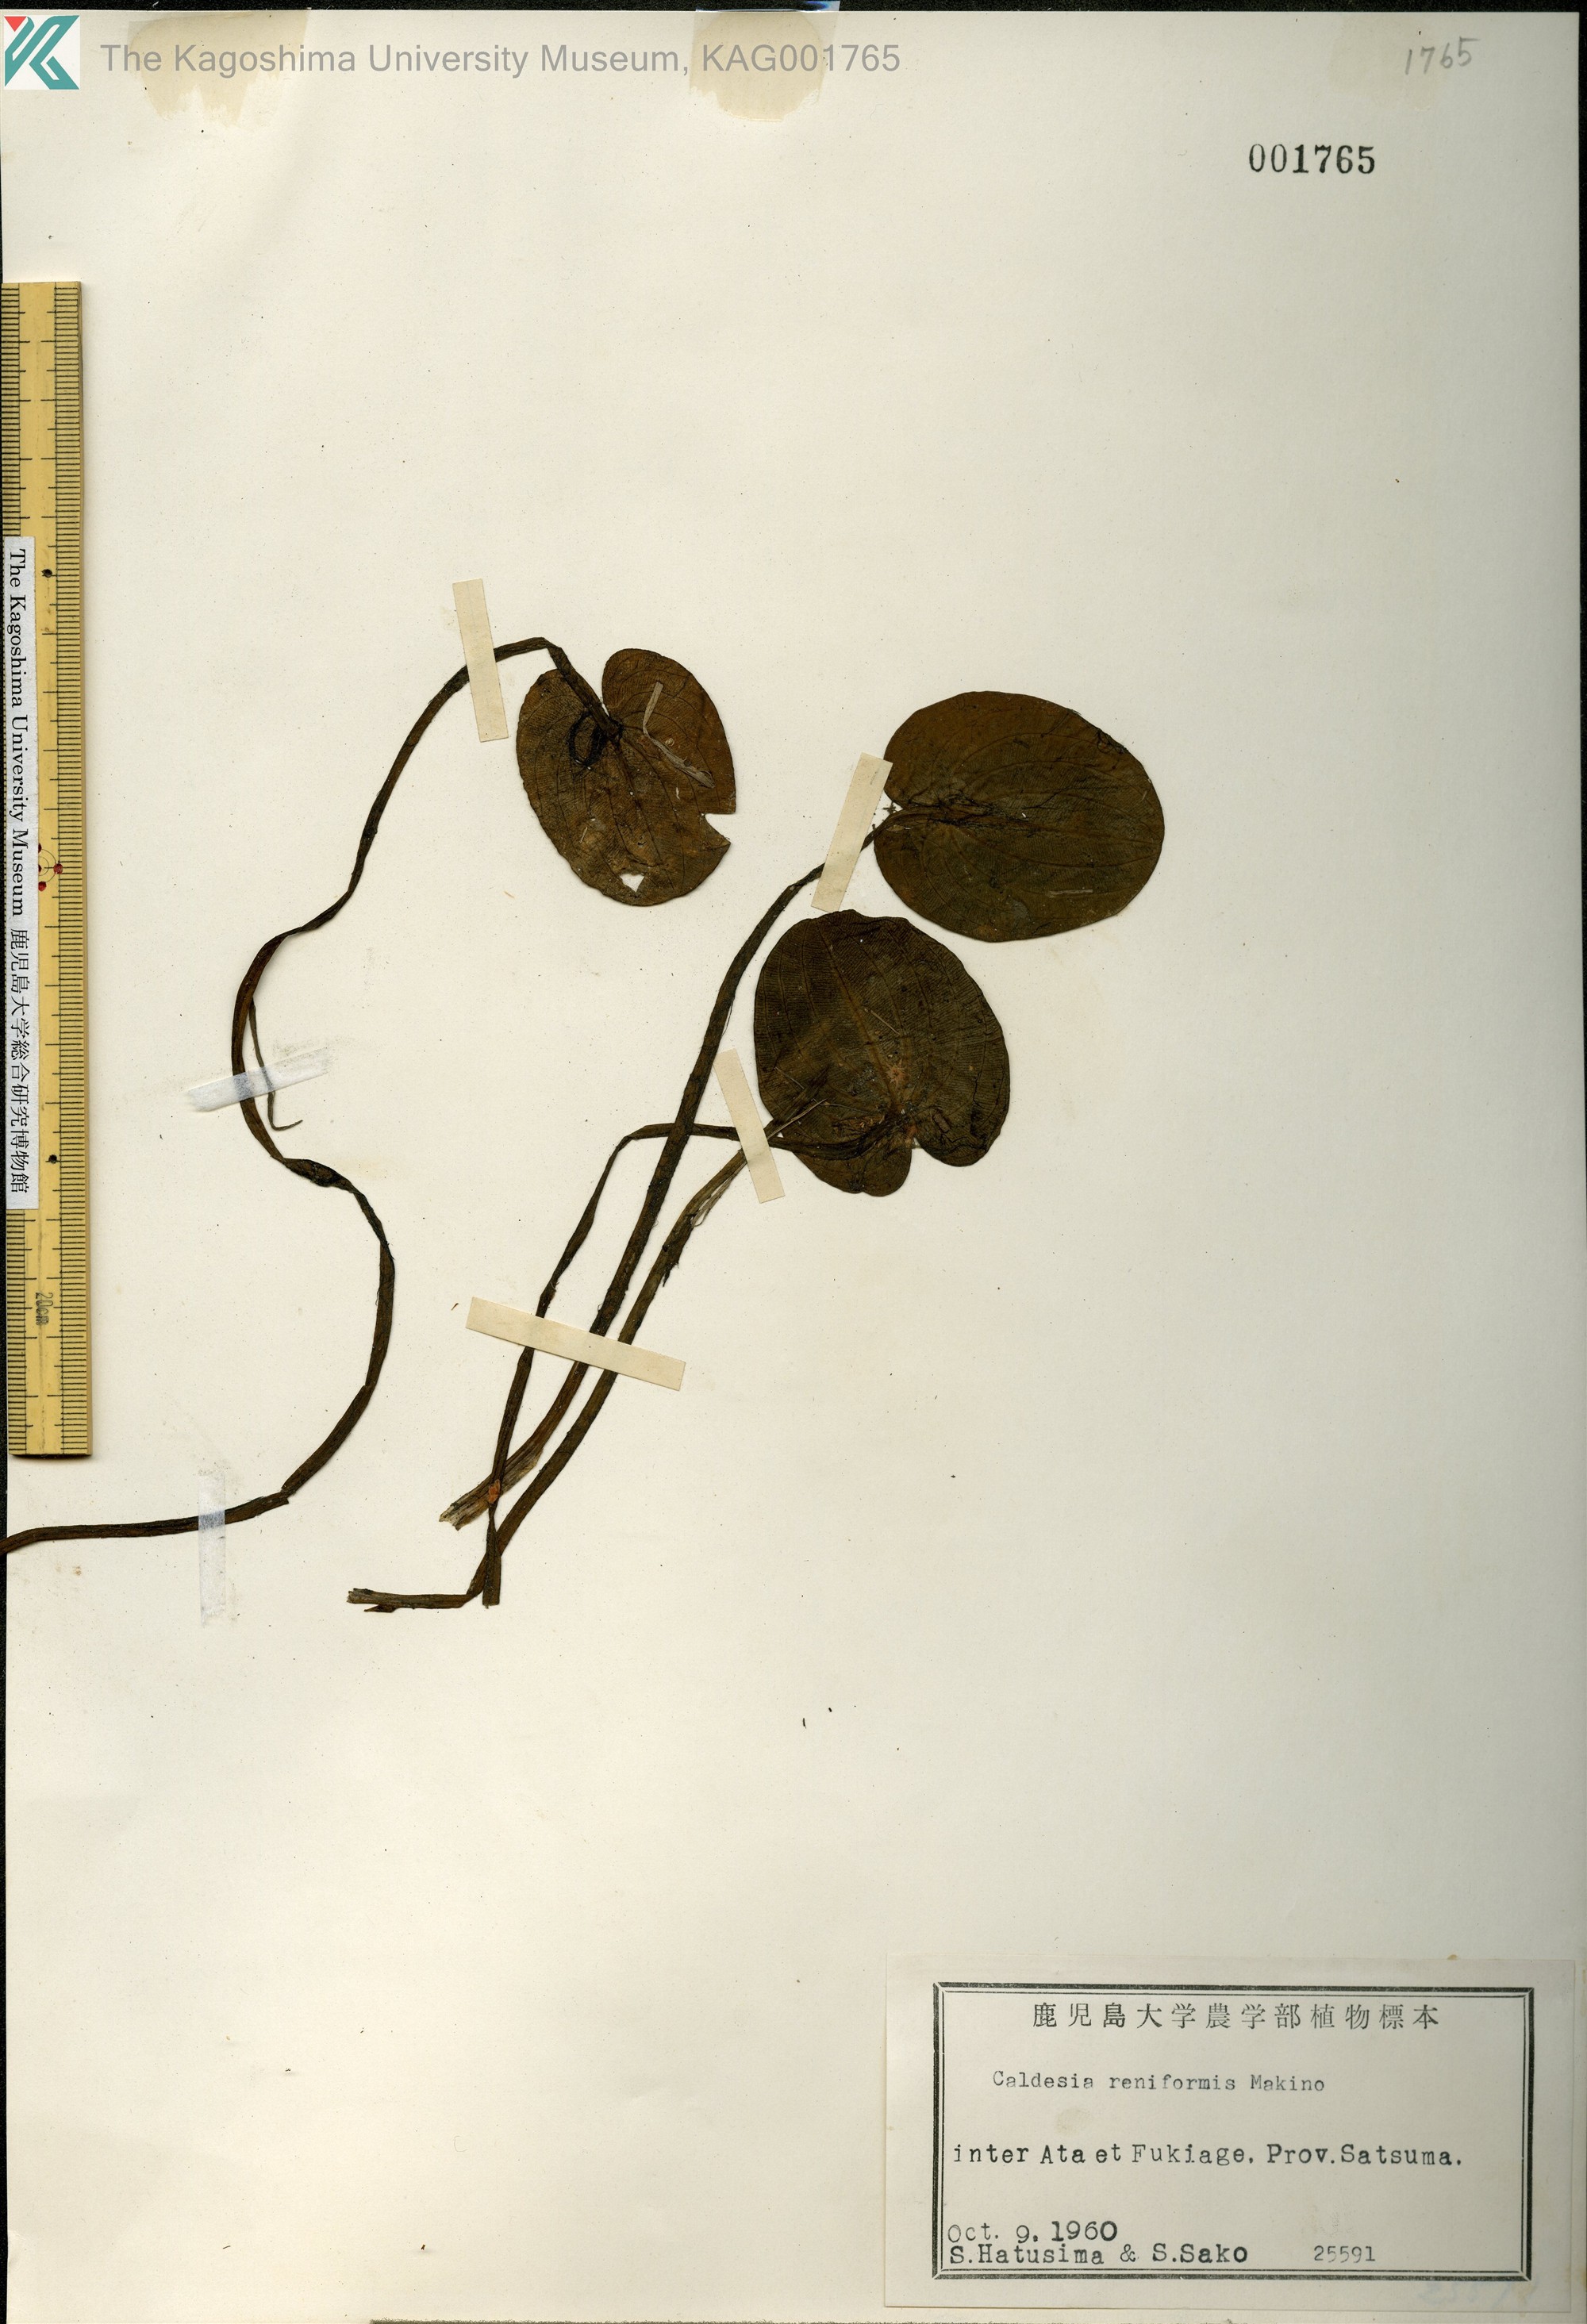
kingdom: Plantae
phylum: Tracheophyta
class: Liliopsida
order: Alismatales
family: Alismataceae
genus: Caldesia
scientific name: Caldesia parnassifolia
